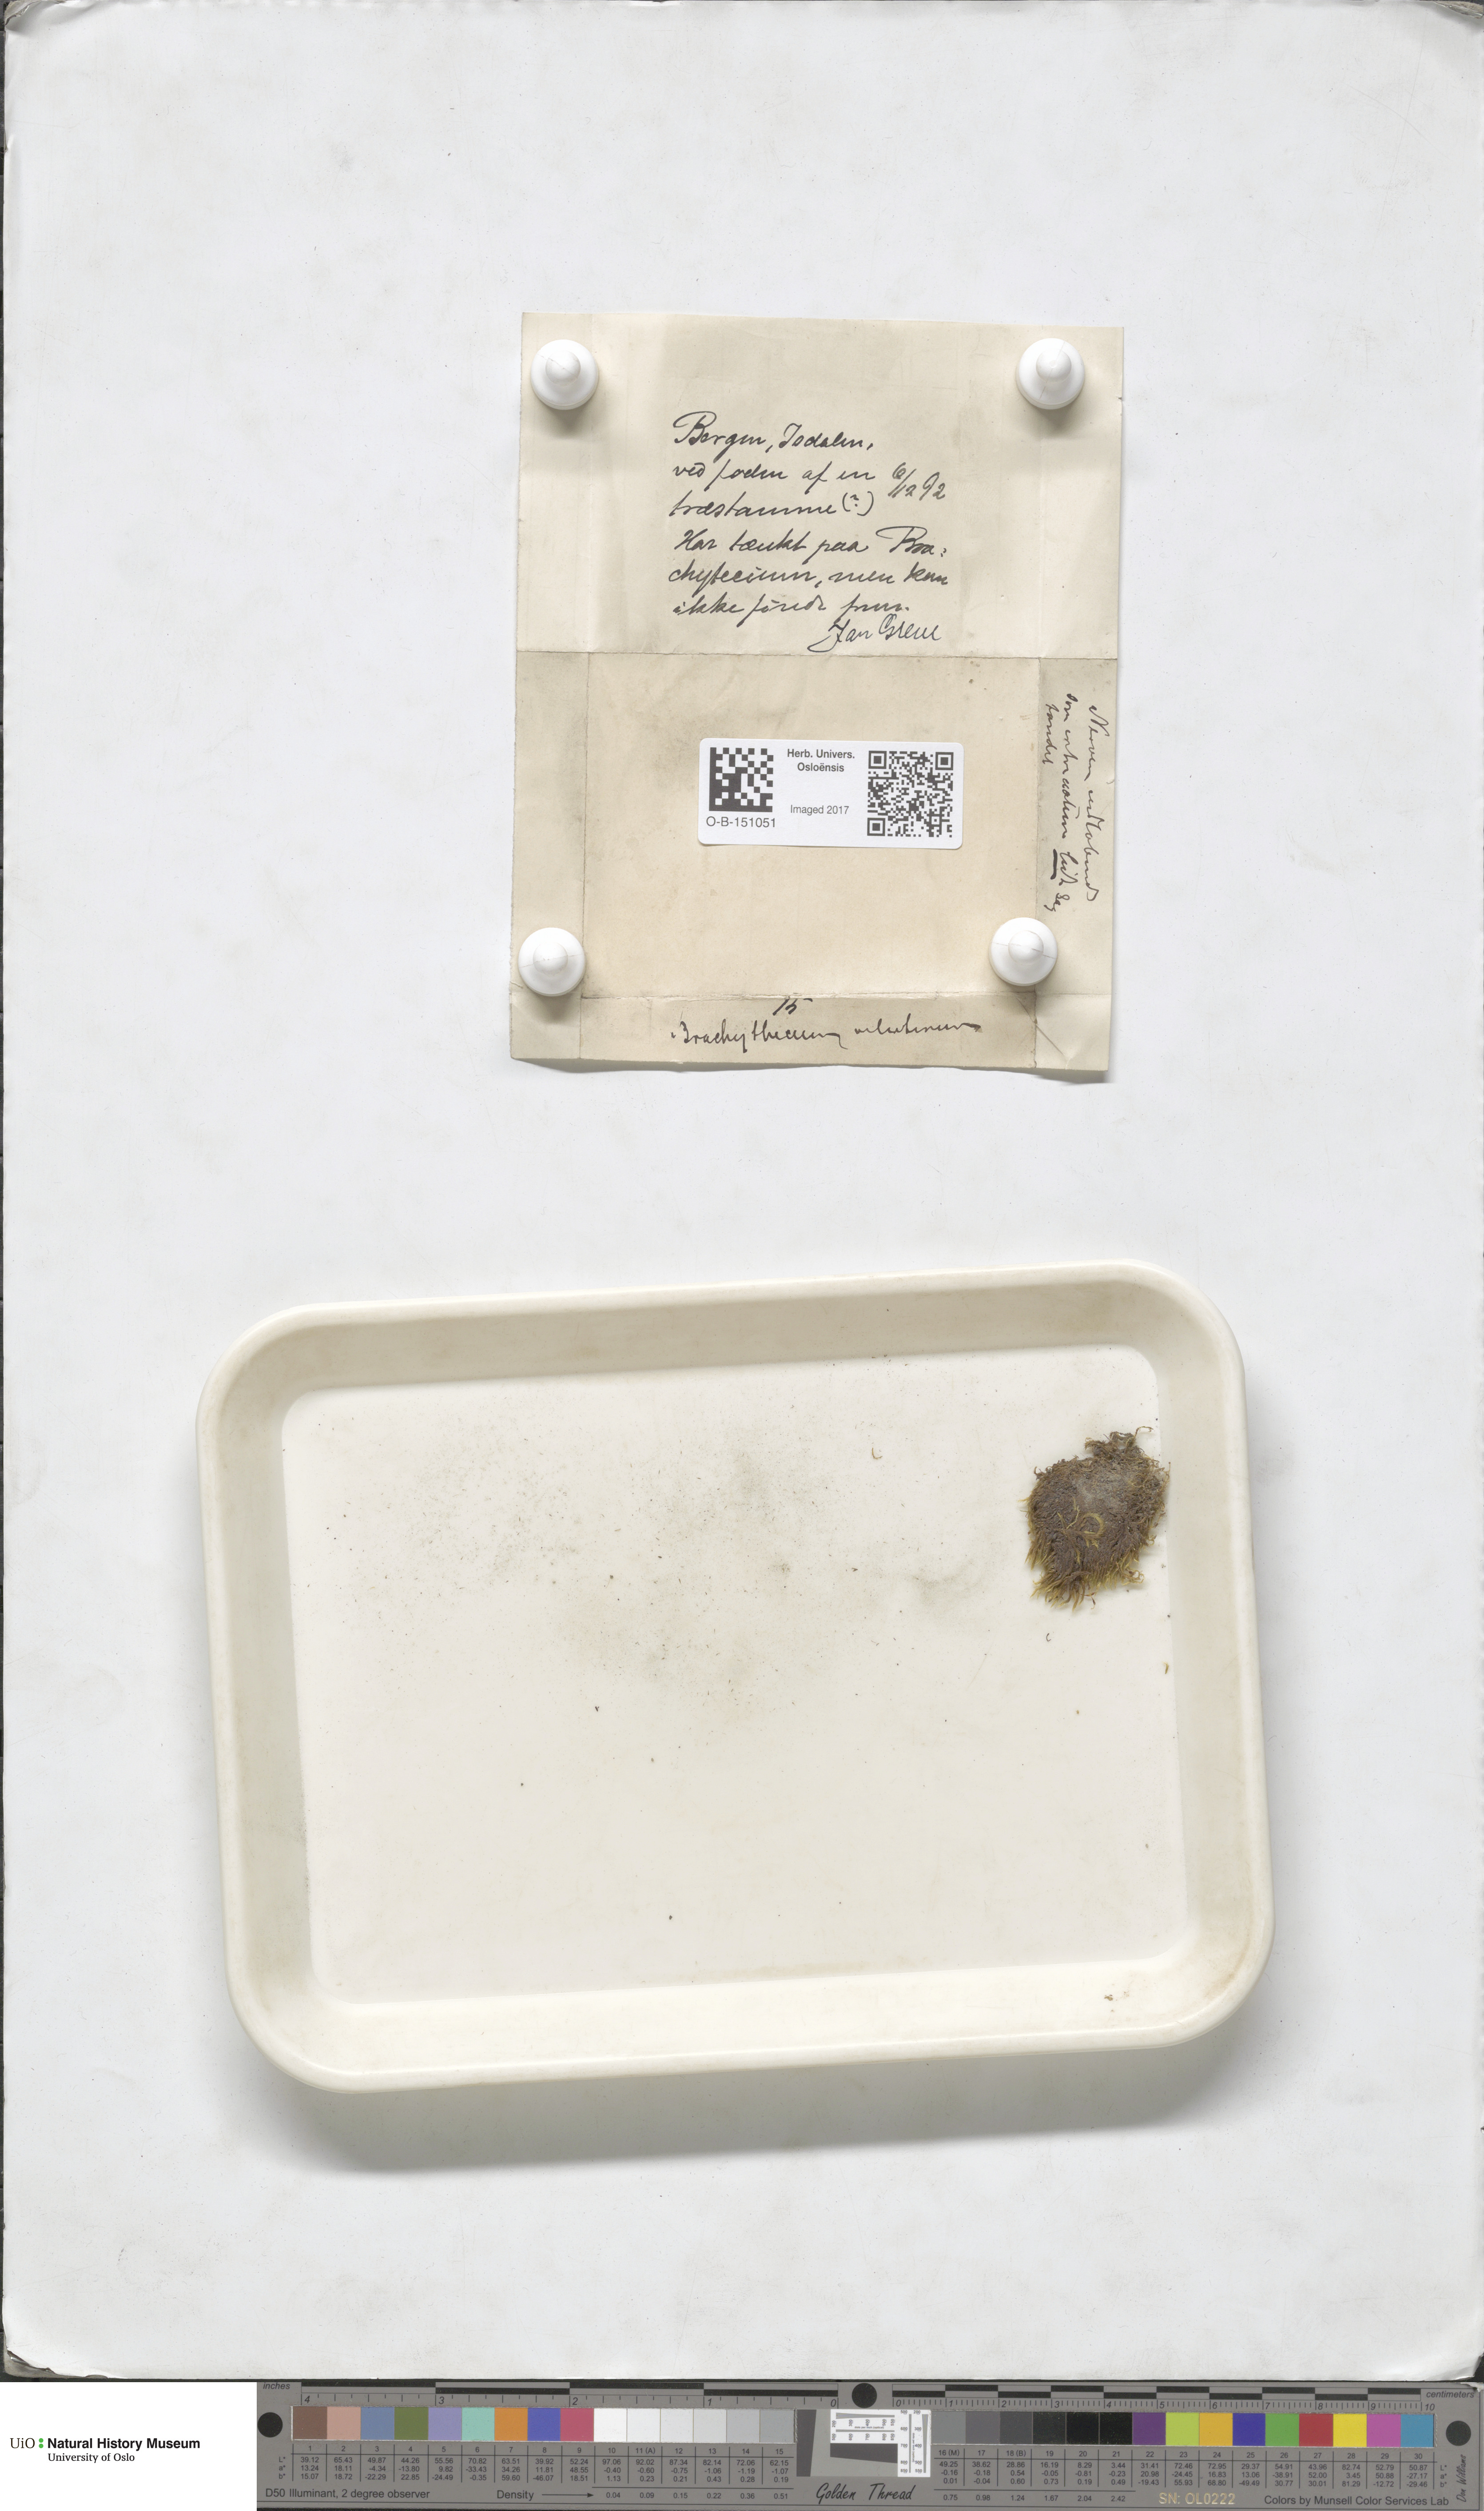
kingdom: Plantae
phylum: Bryophyta
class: Bryopsida
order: Hypnales
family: Brachytheciaceae
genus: Brachytheciastrum
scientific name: Brachytheciastrum velutinum
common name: Velvet feather-moss
